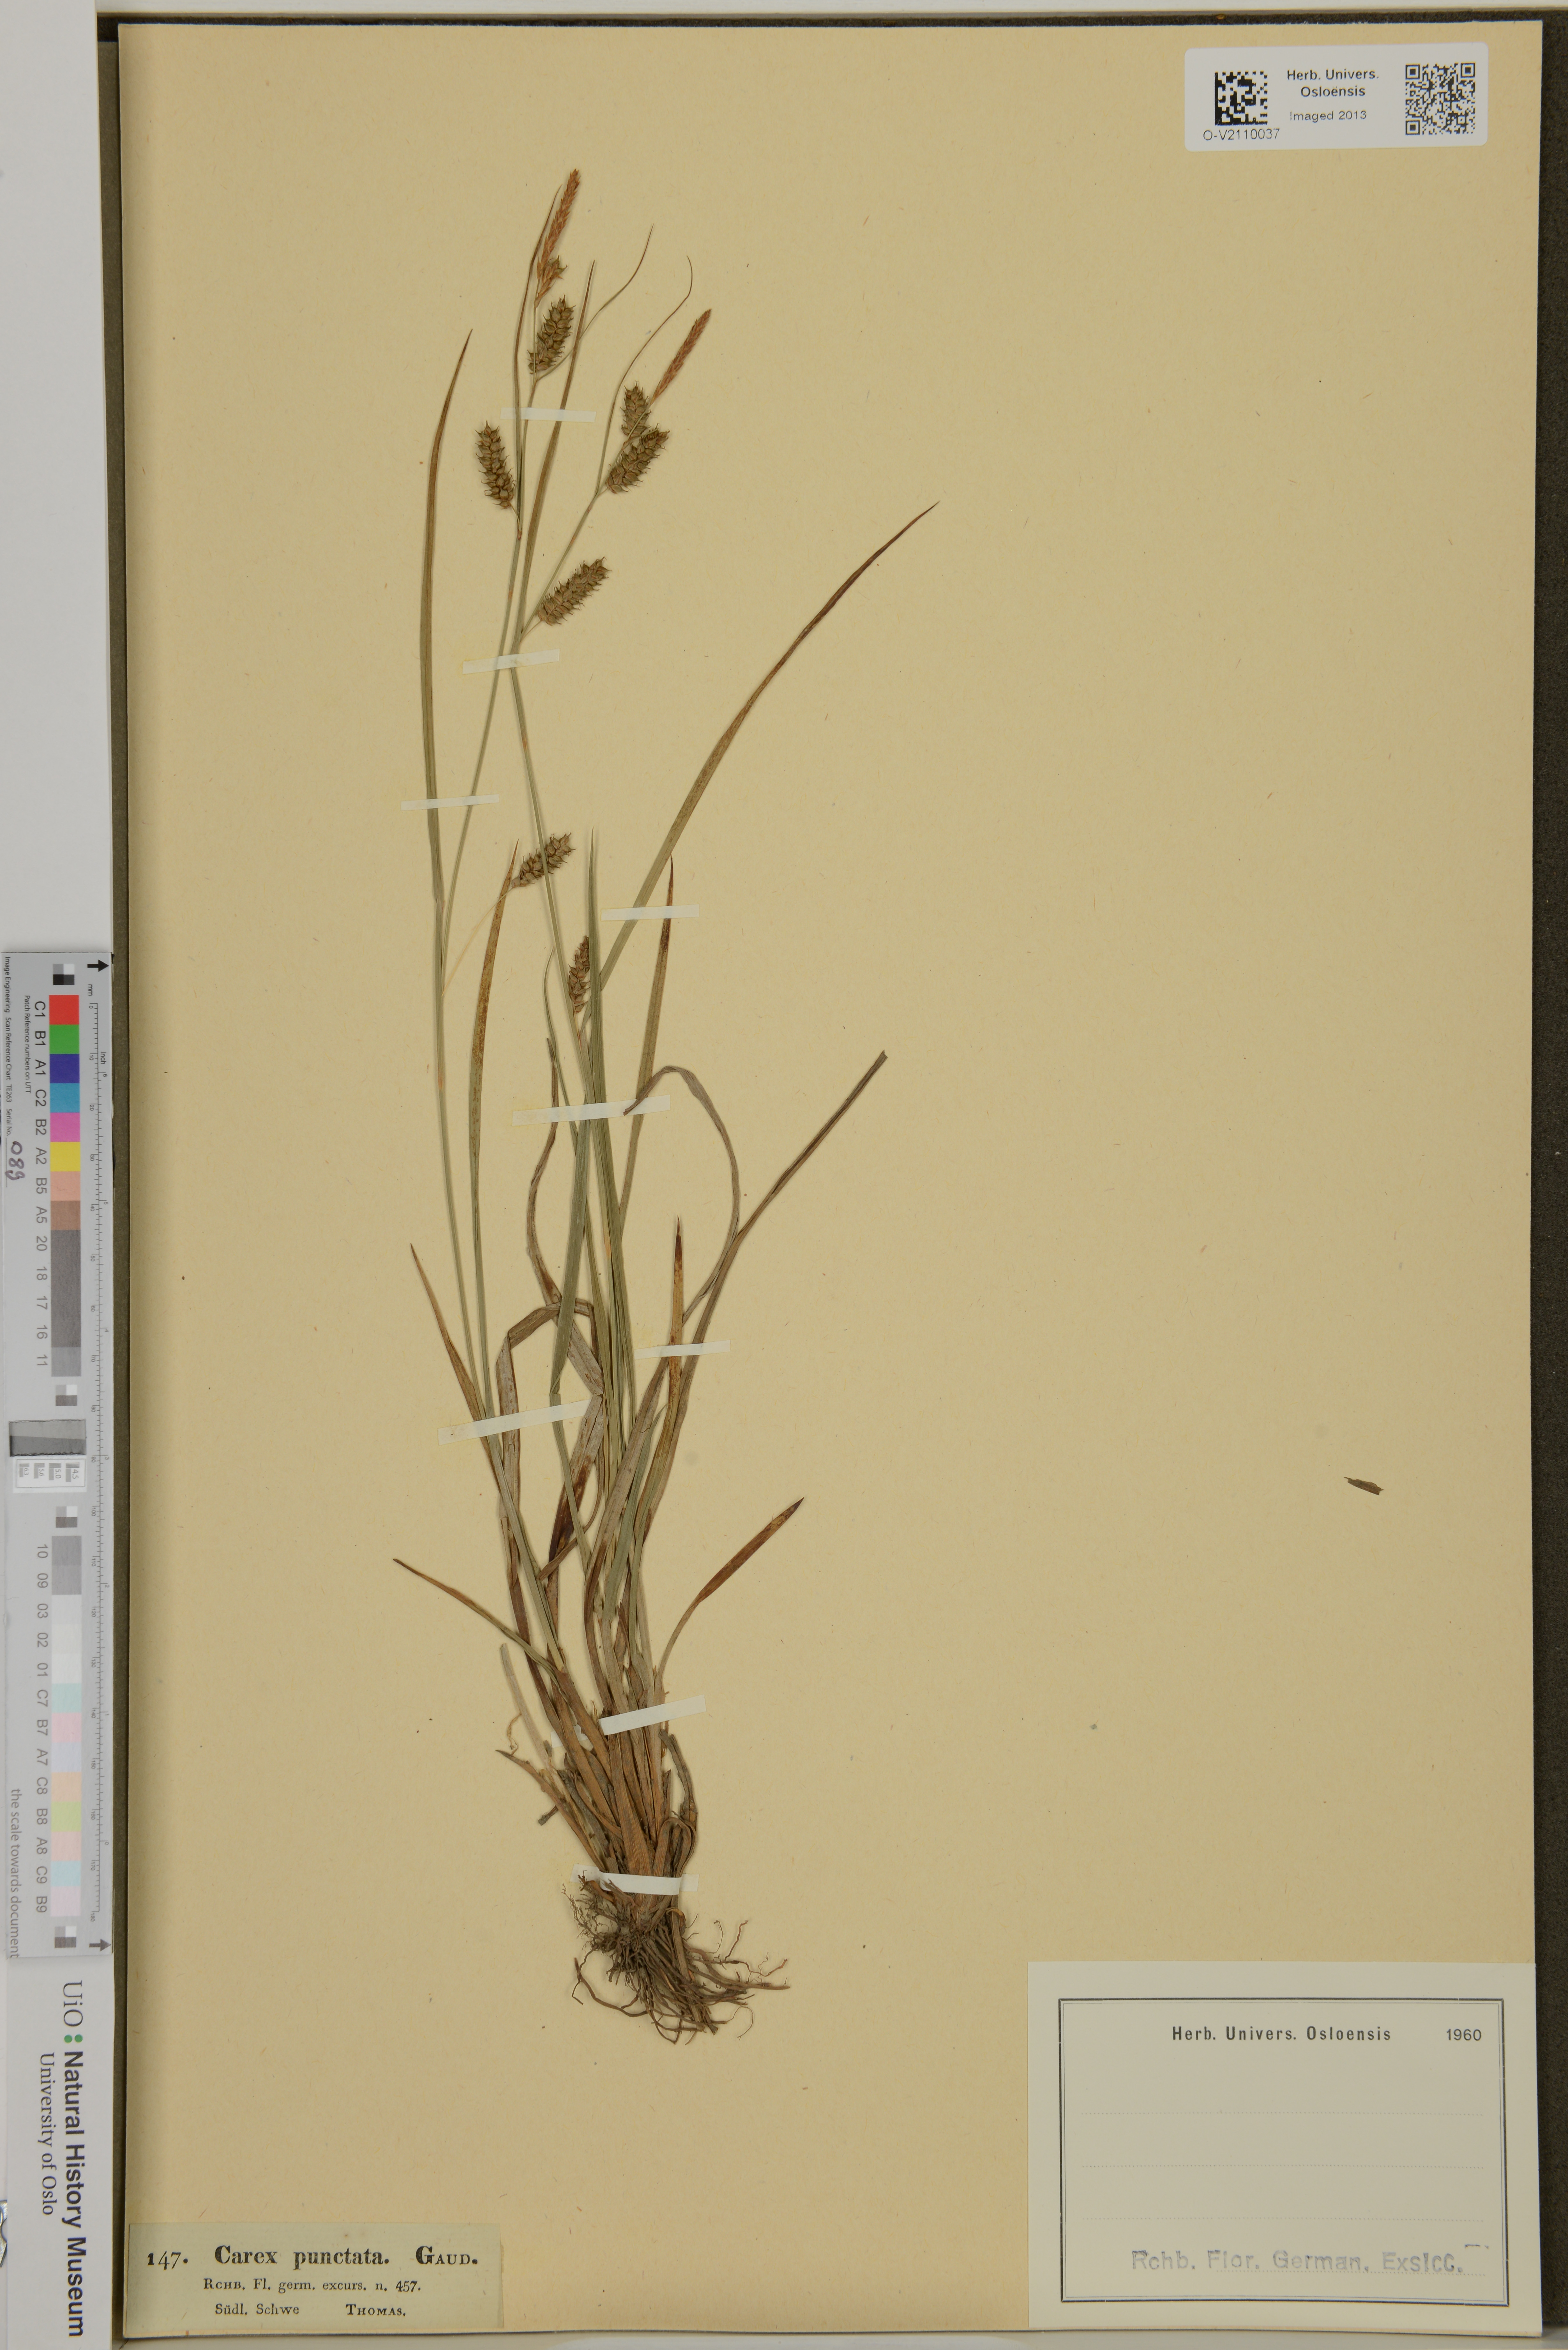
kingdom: Plantae
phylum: Tracheophyta
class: Liliopsida
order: Poales
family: Cyperaceae
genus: Carex
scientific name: Carex punctata
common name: Dotted sedge
